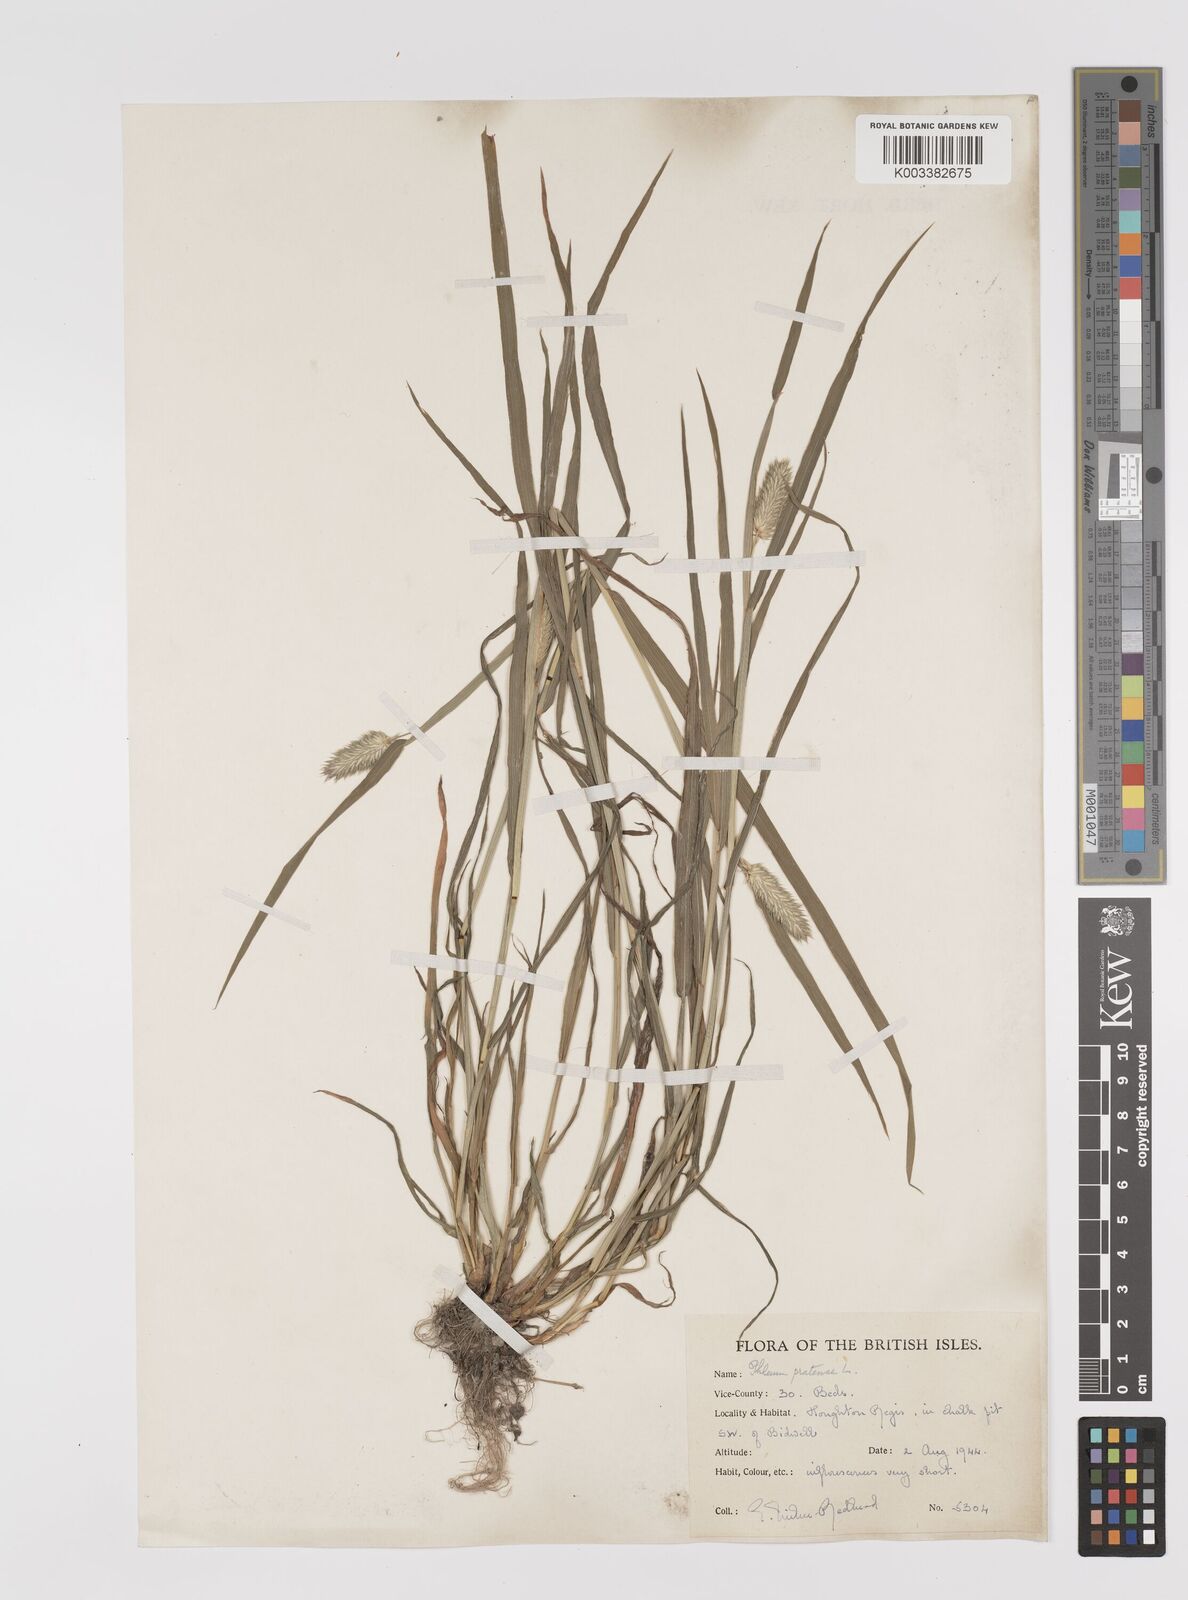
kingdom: Plantae
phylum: Tracheophyta
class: Liliopsida
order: Poales
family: Poaceae
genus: Phleum
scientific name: Phleum pratense
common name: Timothy grass
